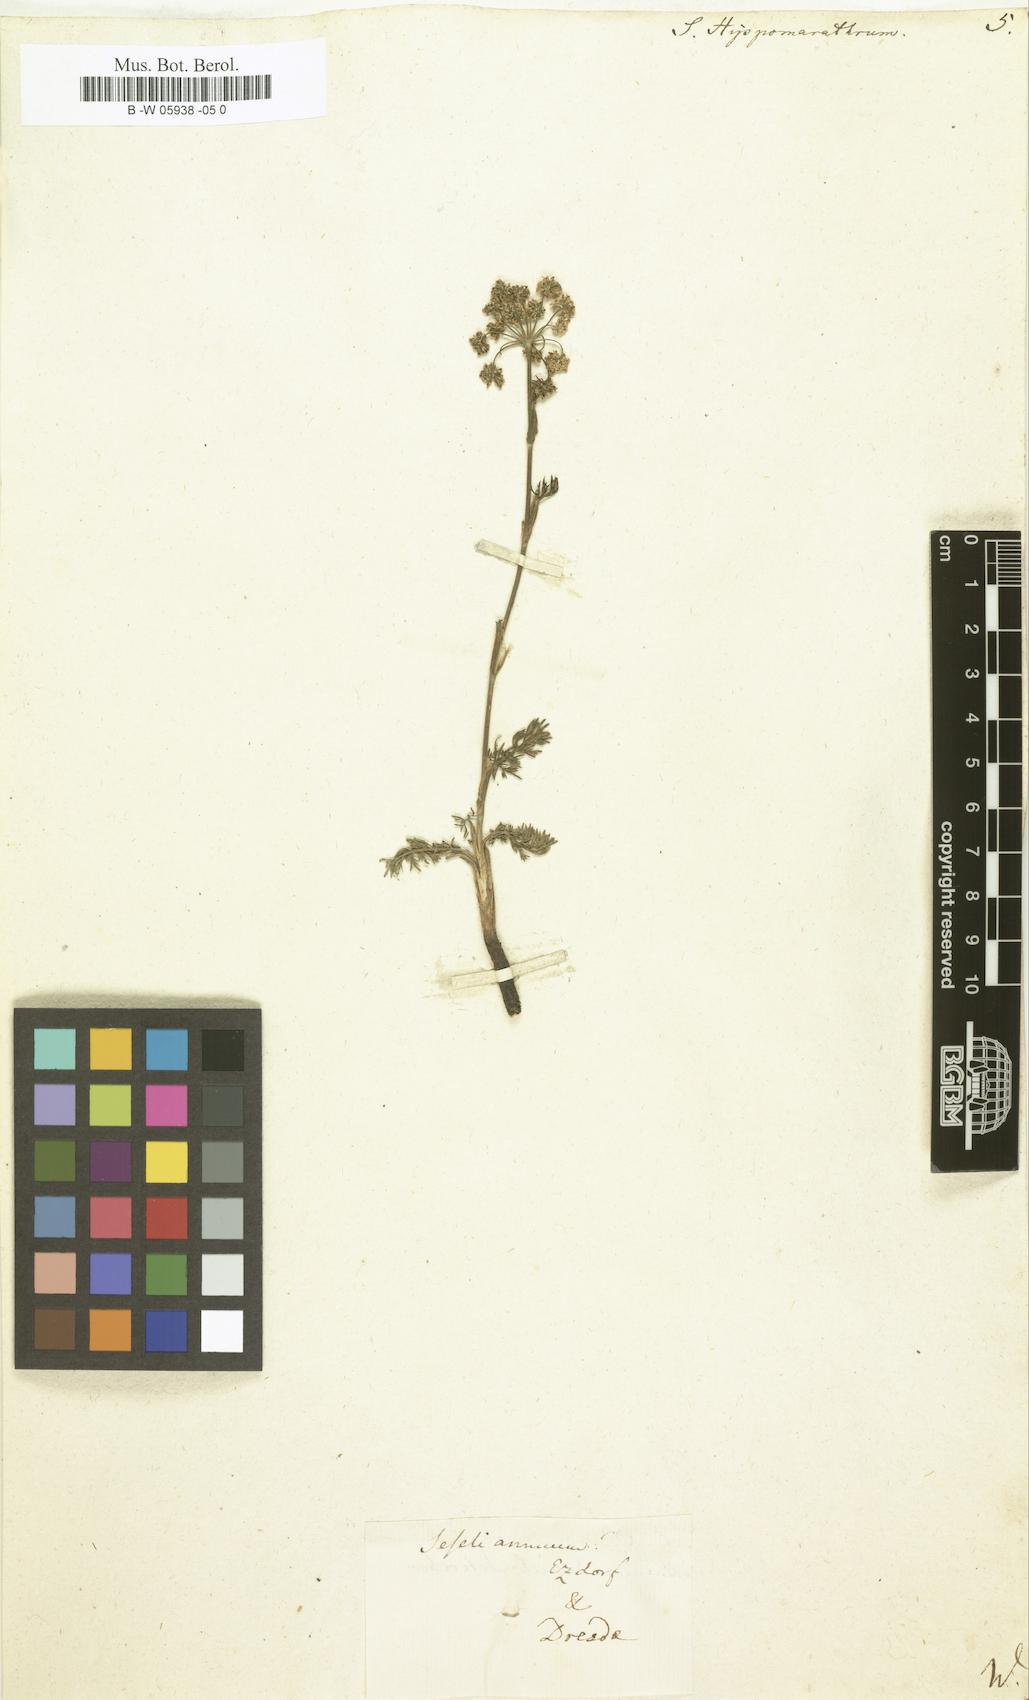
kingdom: Plantae
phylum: Tracheophyta
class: Magnoliopsida
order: Apiales
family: Apiaceae
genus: Hippomarathrum
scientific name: Hippomarathrum vulgare
